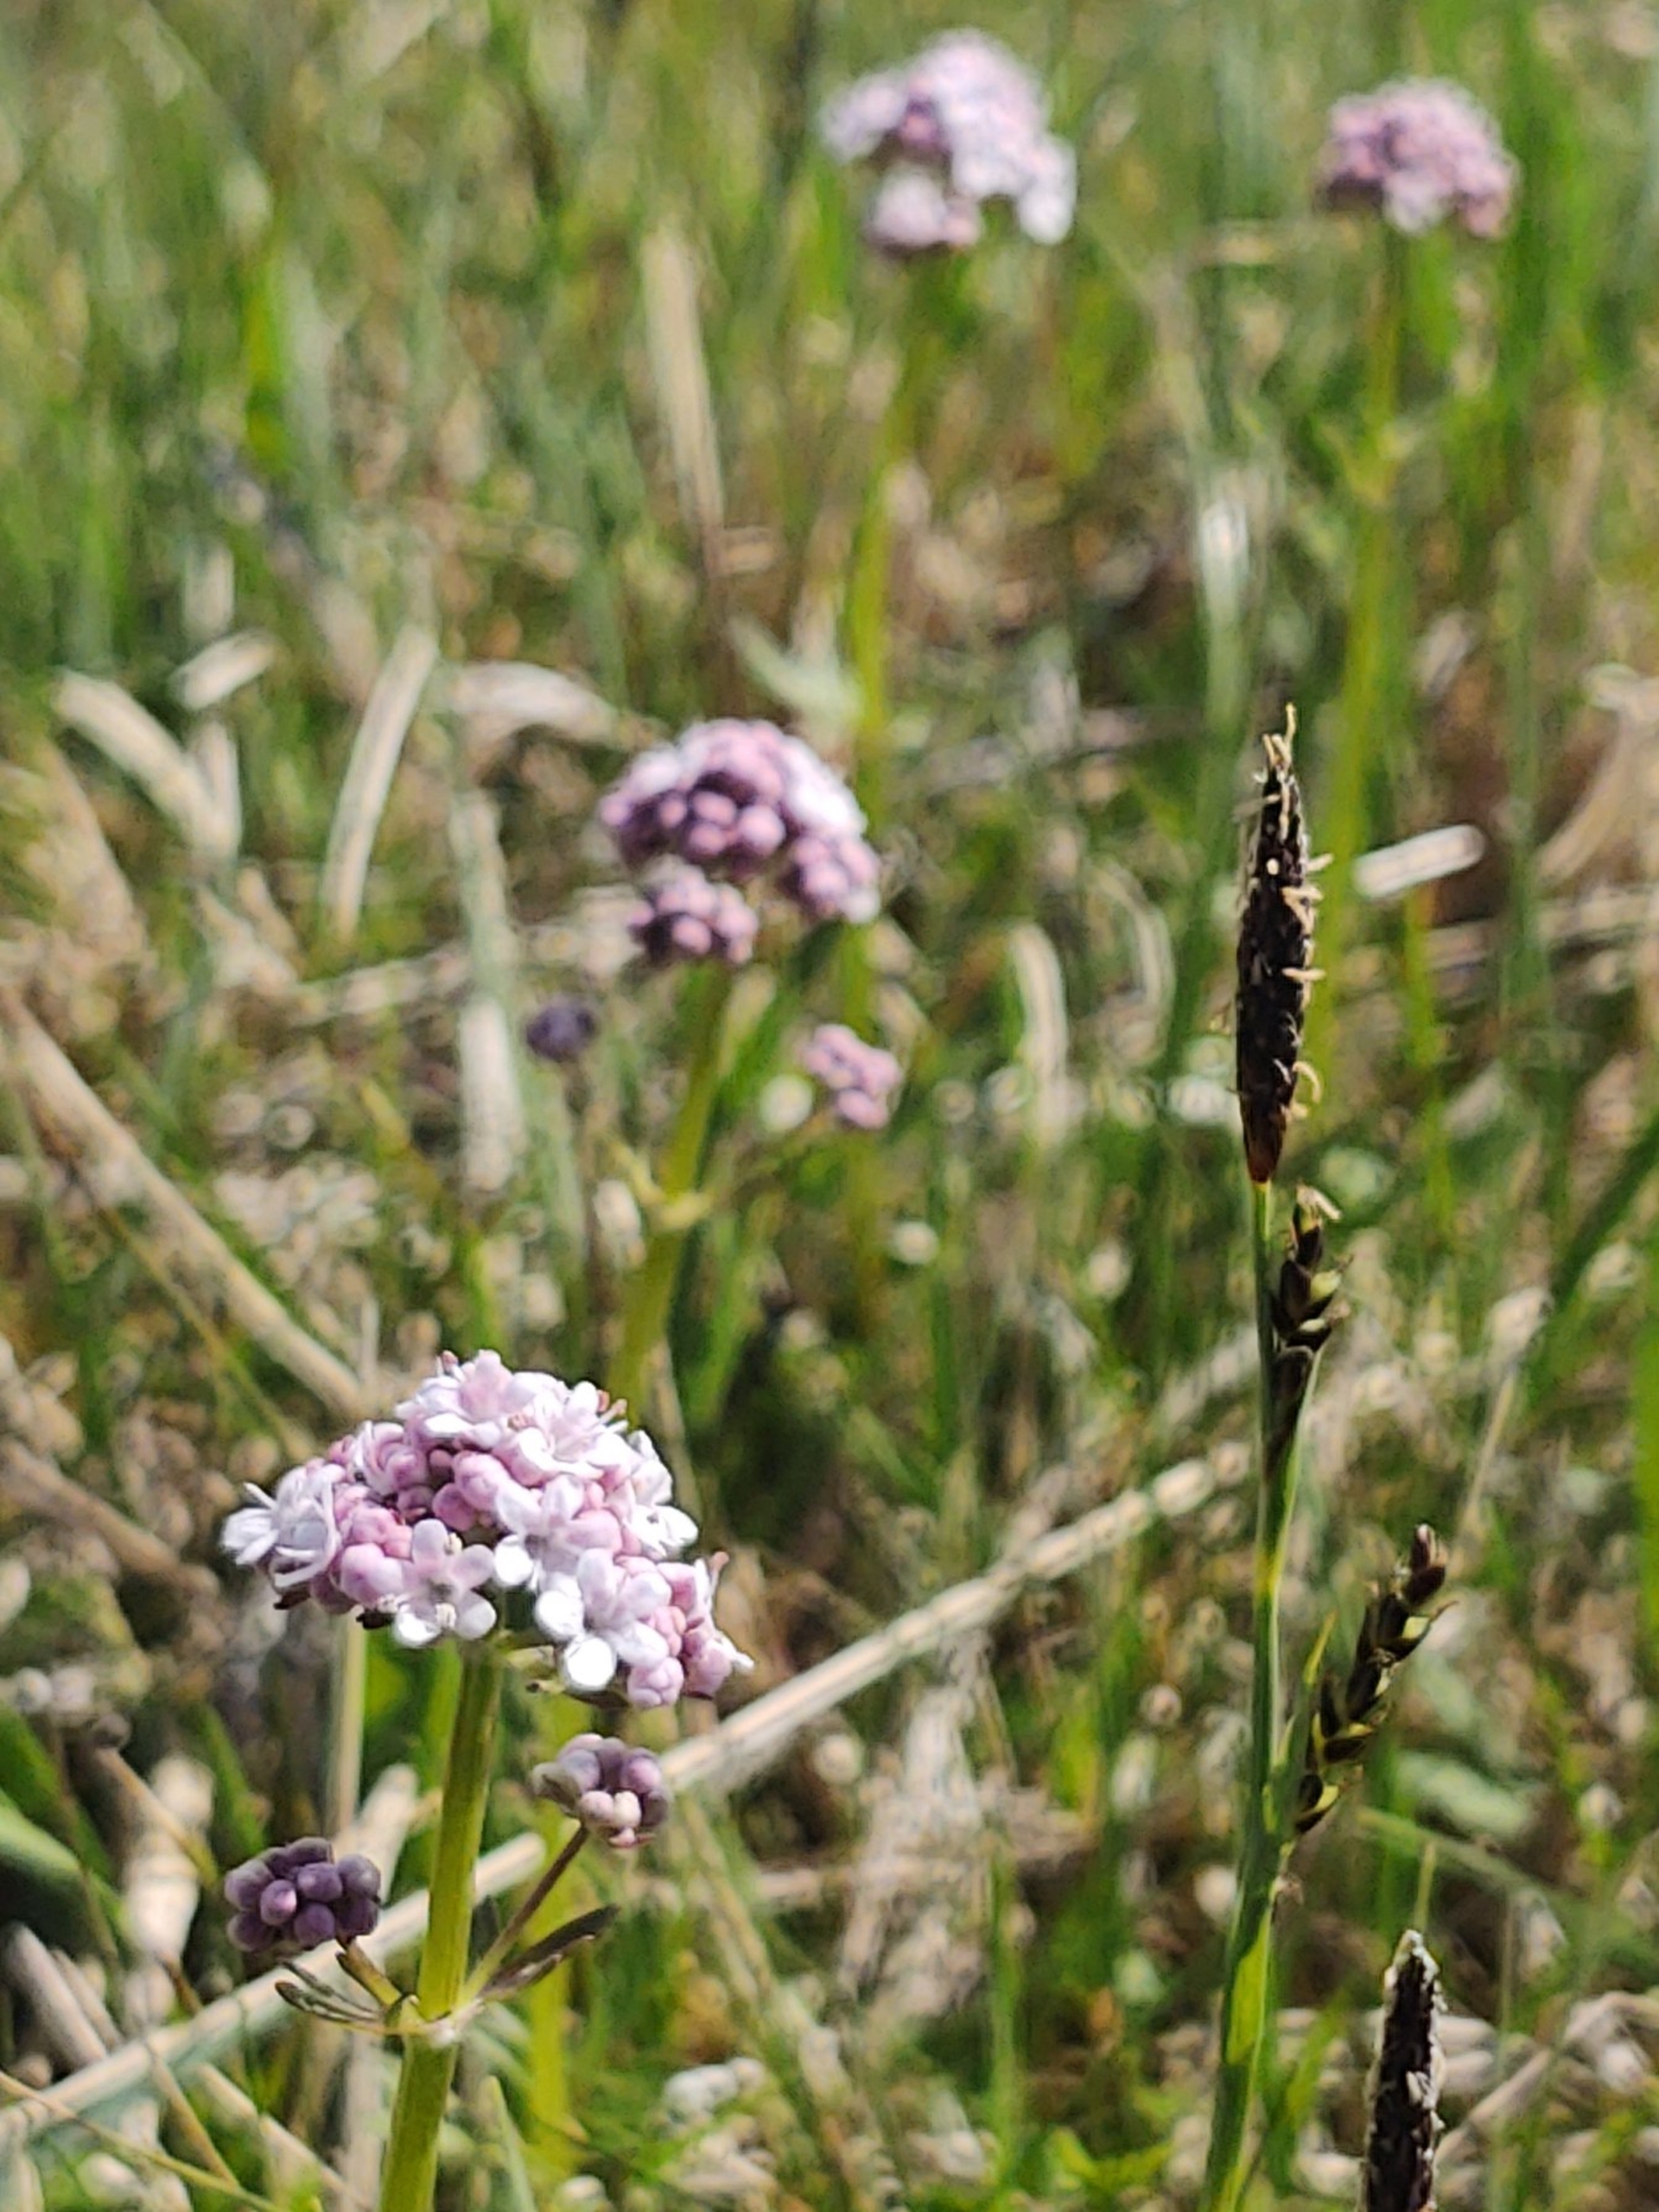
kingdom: Plantae
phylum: Tracheophyta
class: Magnoliopsida
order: Dipsacales
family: Caprifoliaceae
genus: Valeriana
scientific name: Valeriana dioica
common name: Tvebo baldrian
